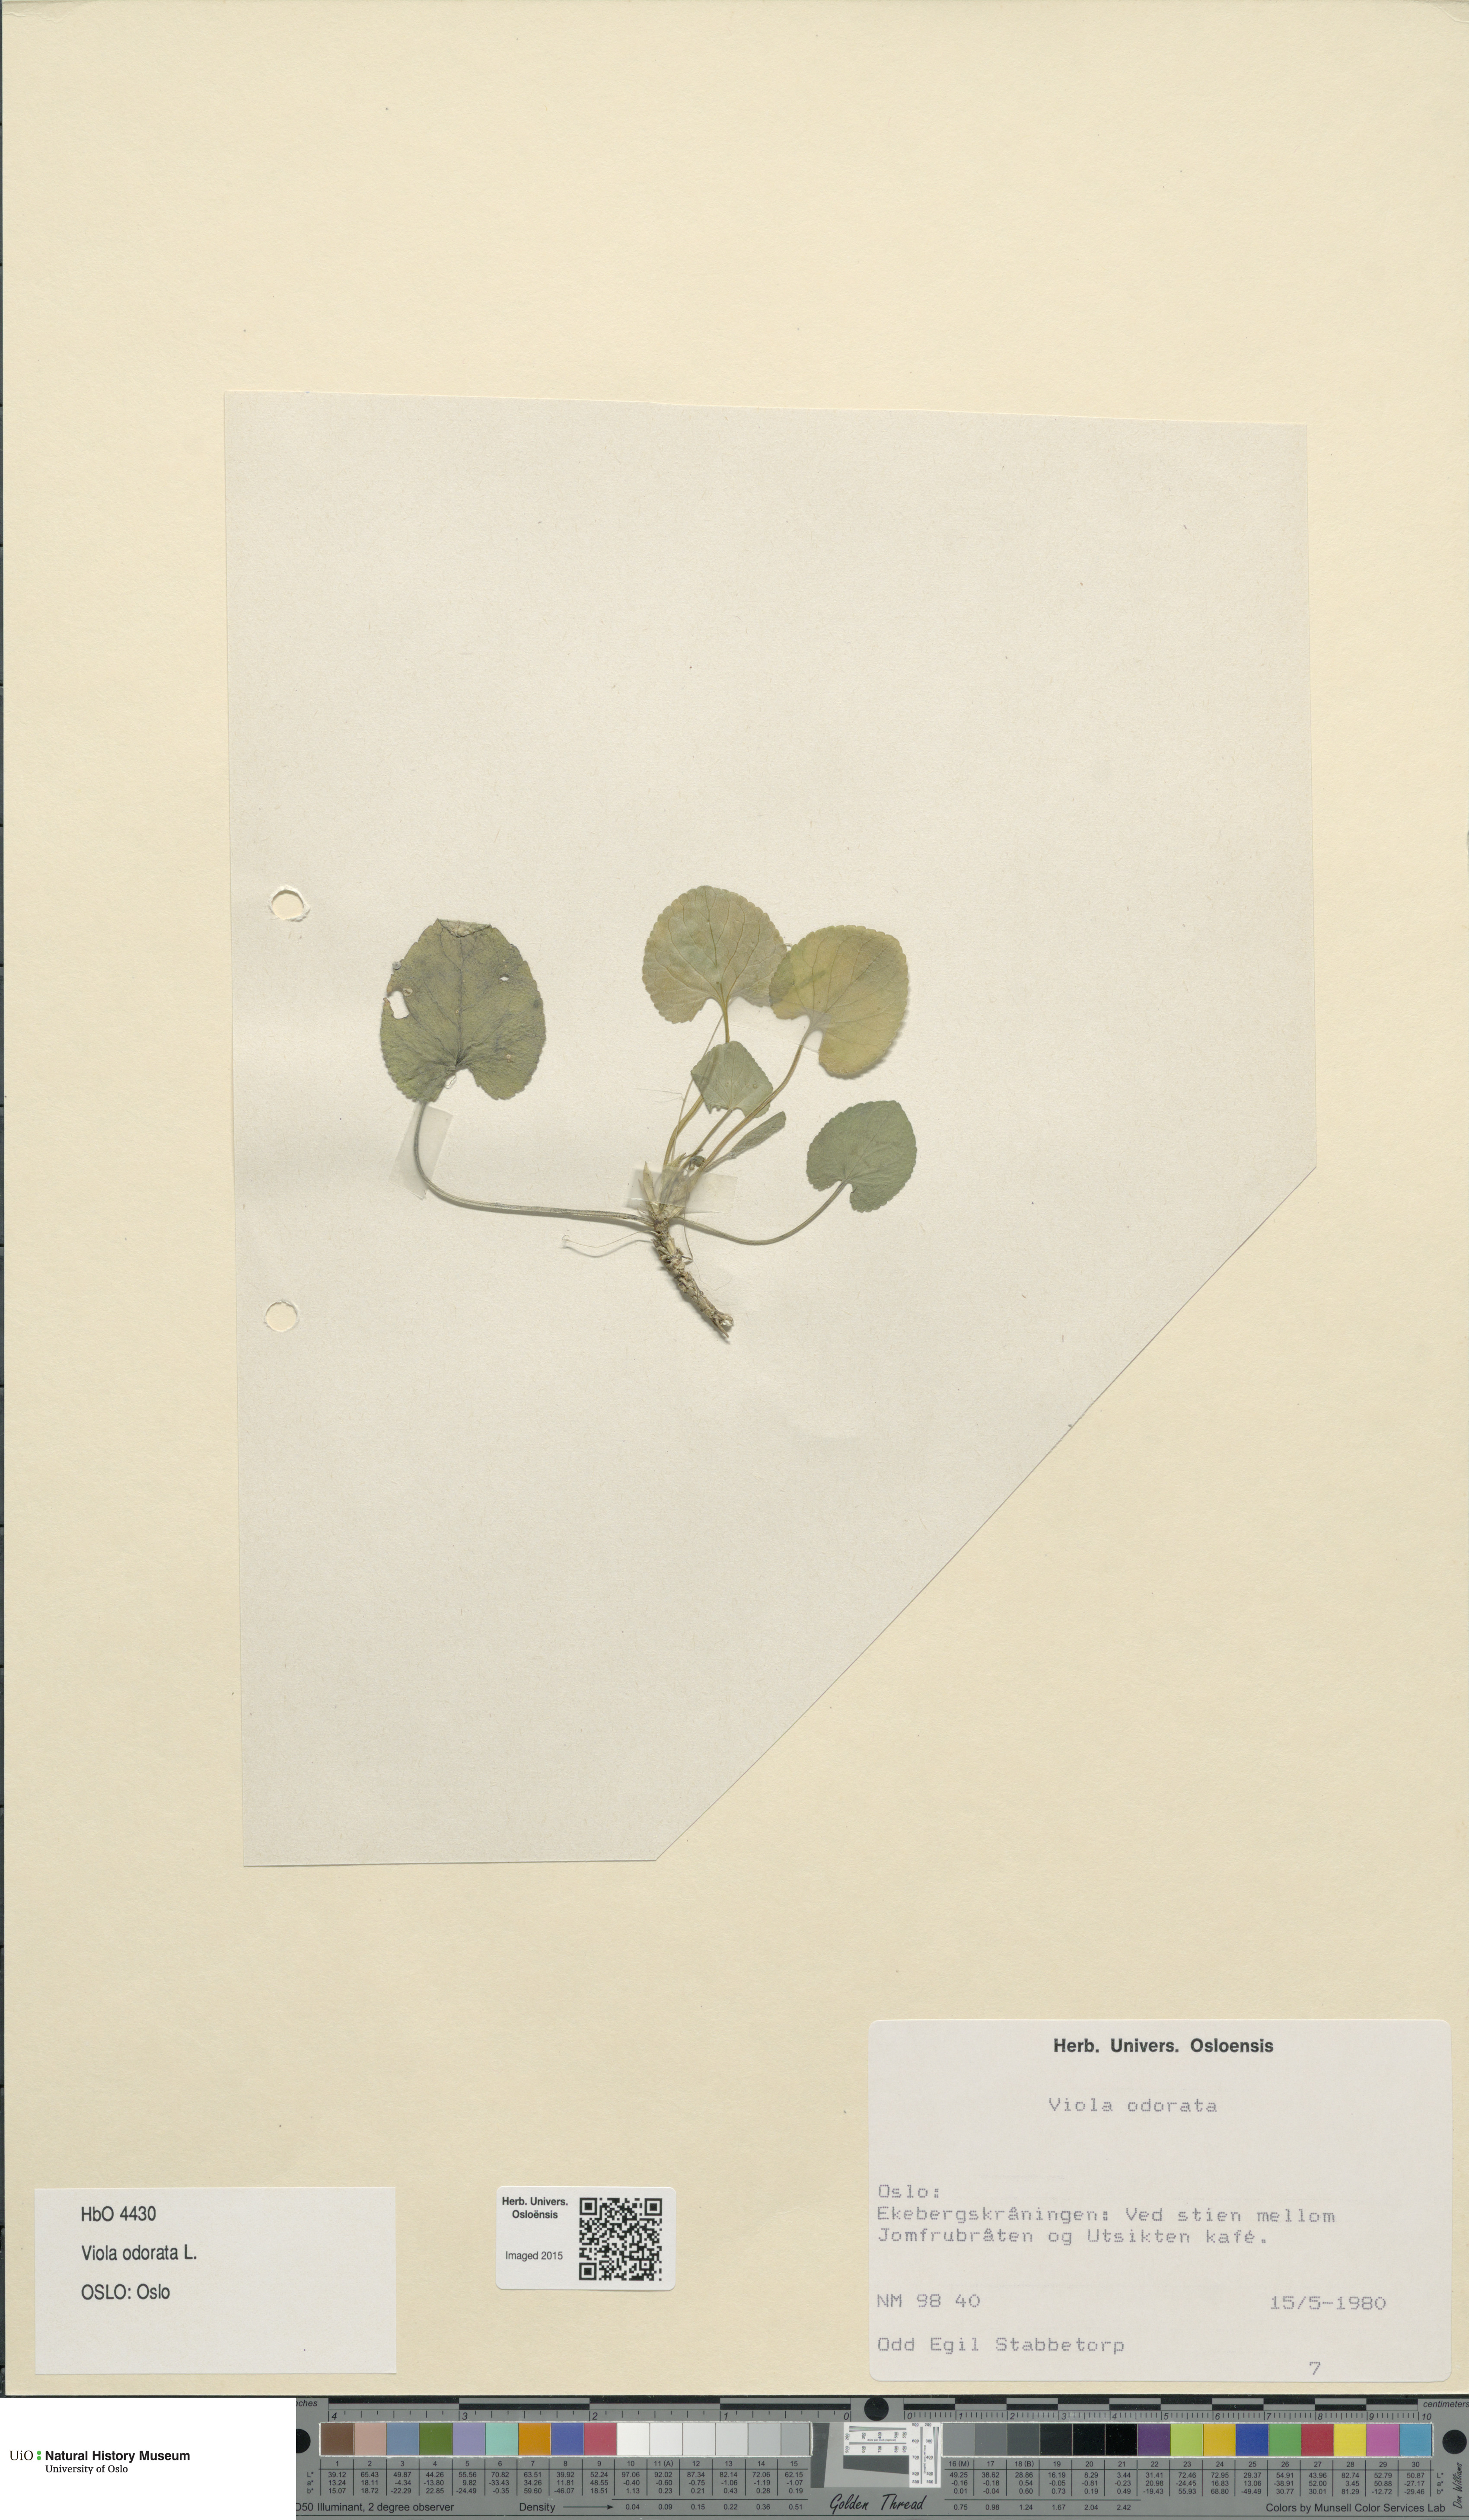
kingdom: Plantae
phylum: Tracheophyta
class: Magnoliopsida
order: Malpighiales
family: Violaceae
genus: Viola
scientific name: Viola odorata
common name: Sweet violet
